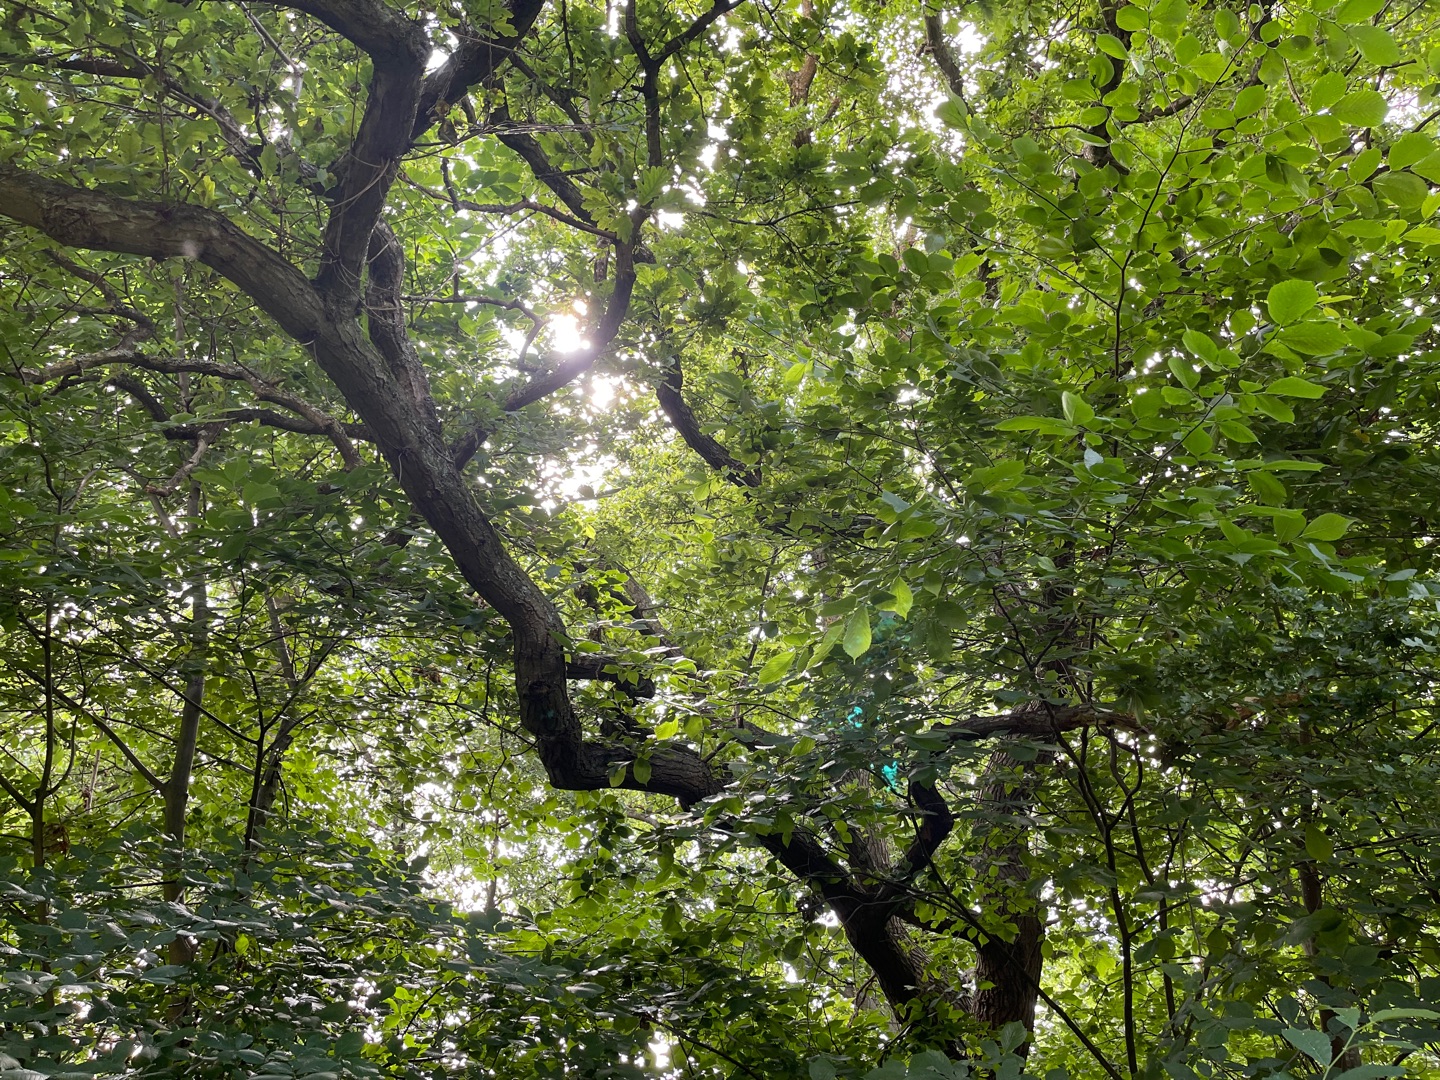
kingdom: Plantae
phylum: Tracheophyta
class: Magnoliopsida
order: Fagales
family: Fagaceae
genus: Quercus
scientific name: Quercus robur
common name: Stilk-eg/almindelig eg
